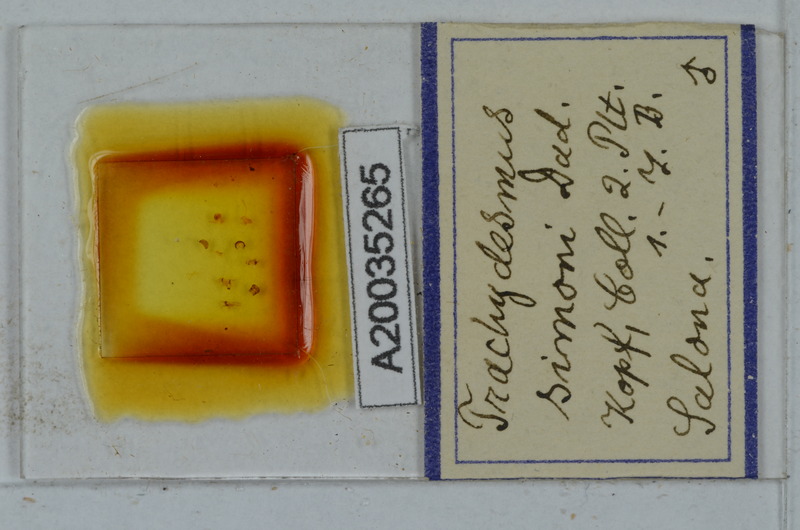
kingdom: Animalia
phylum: Arthropoda
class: Diplopoda
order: Polydesmida
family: Paradoxosomatidae
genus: Stosatea
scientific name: Stosatea simonii
